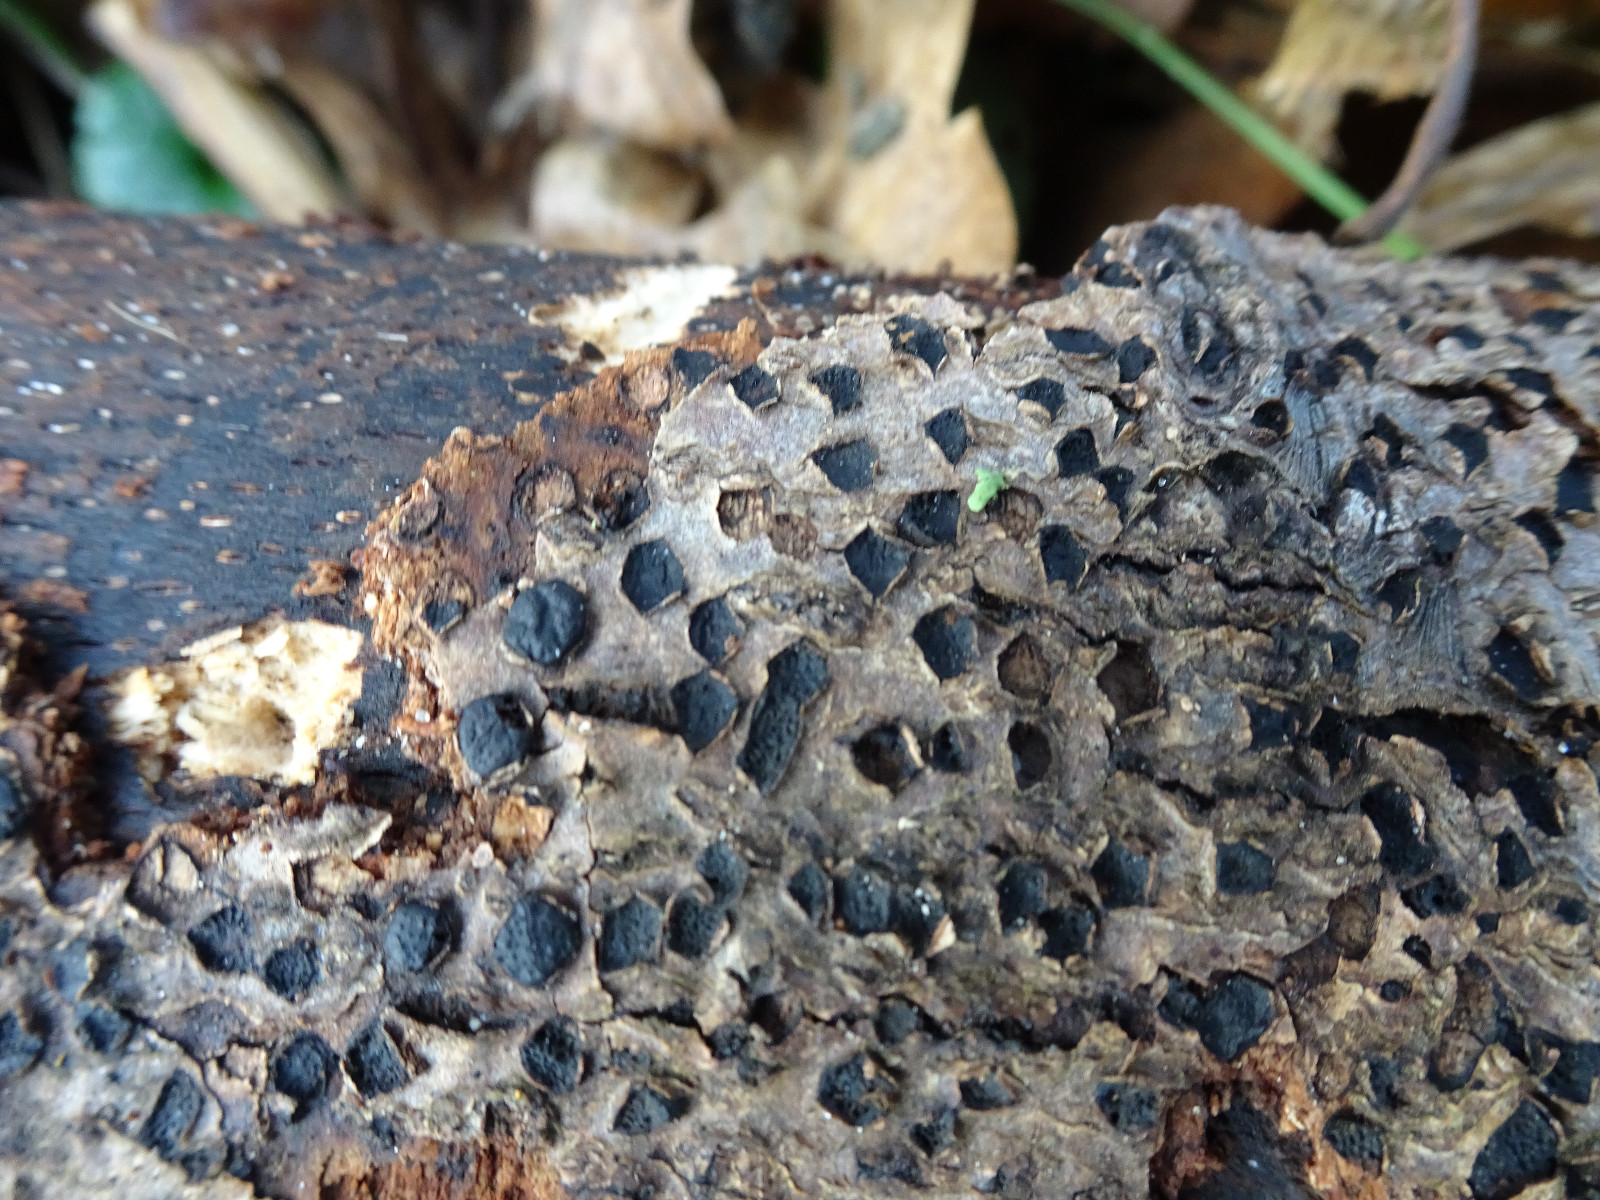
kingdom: Fungi
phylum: Ascomycota
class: Sordariomycetes
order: Xylariales
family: Diatrypaceae
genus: Diatrypella
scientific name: Diatrypella quercina
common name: ege-kulskorpe
